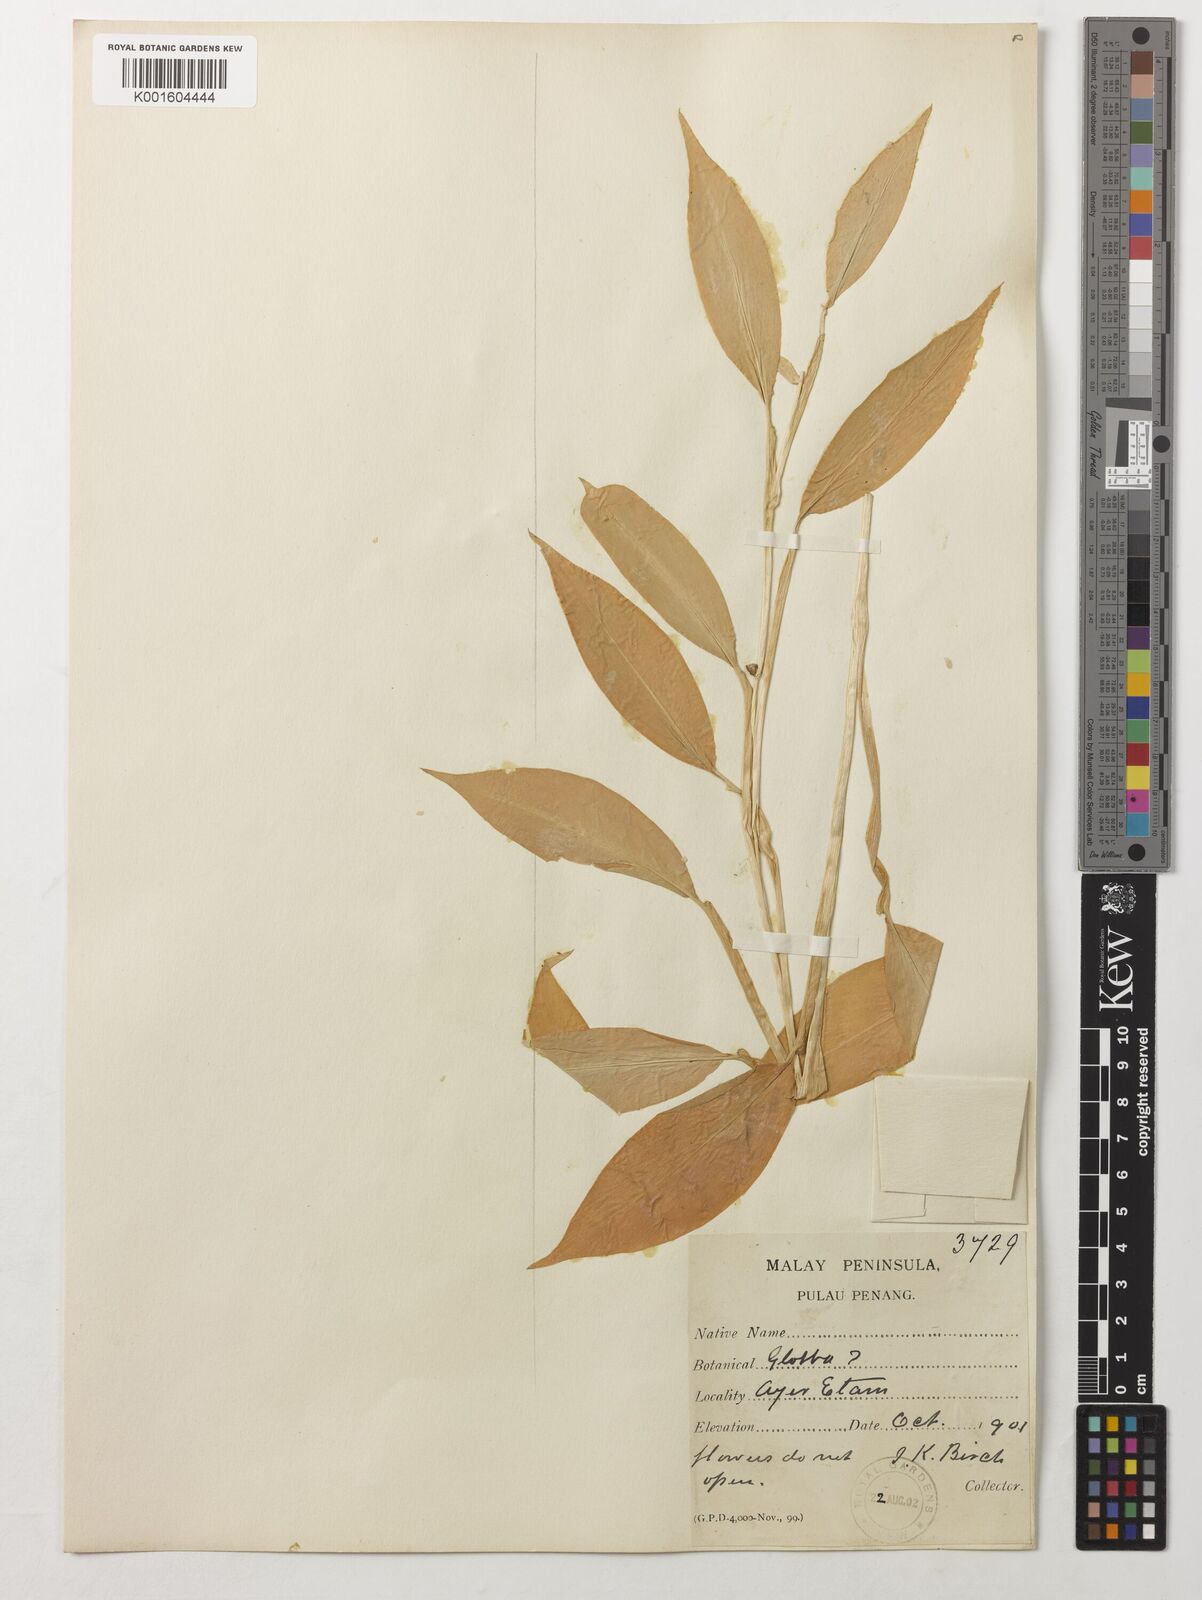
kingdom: Plantae
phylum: Tracheophyta
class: Liliopsida
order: Zingiberales
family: Zingiberaceae
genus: Globba
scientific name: Globba marantina
